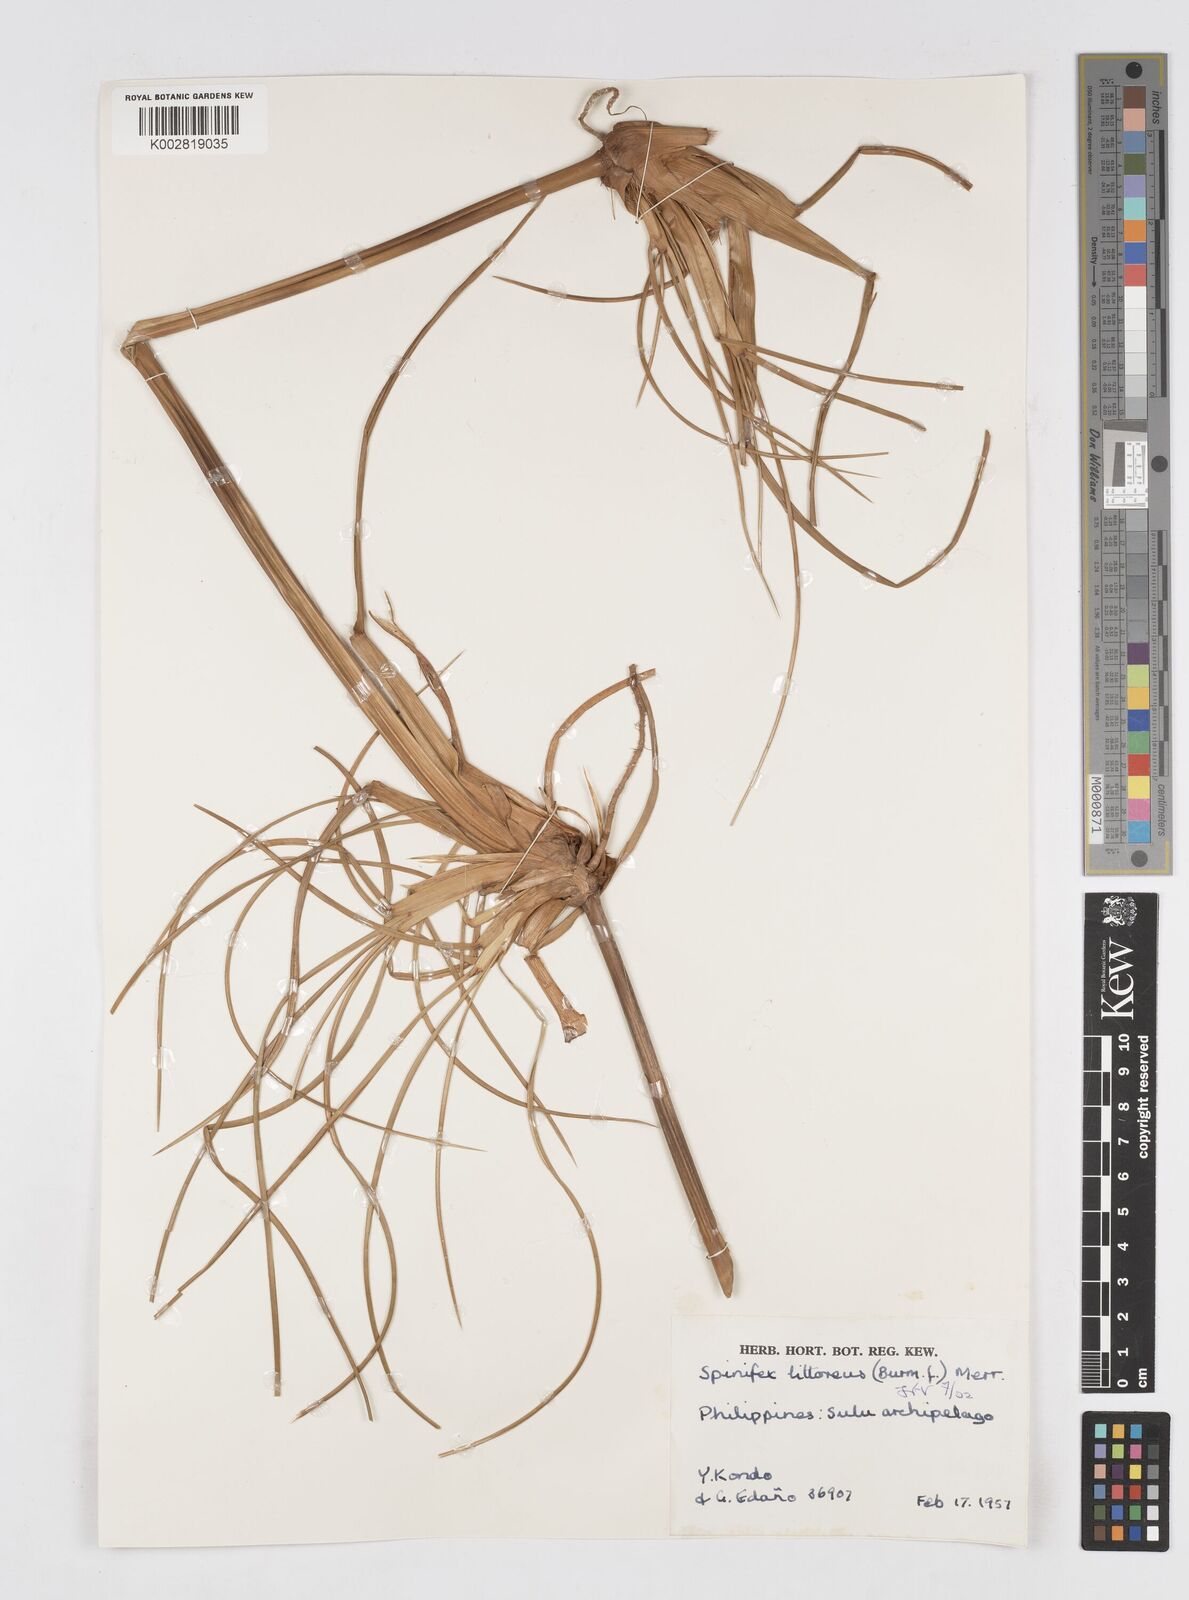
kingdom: Plantae
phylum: Tracheophyta
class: Liliopsida
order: Poales
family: Poaceae
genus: Spinifex
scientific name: Spinifex littoreus
